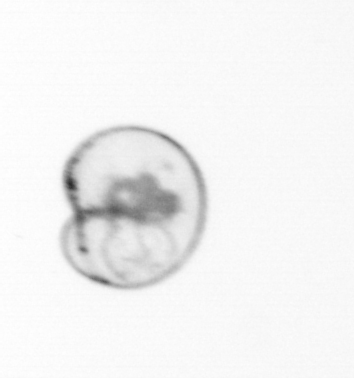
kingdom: Chromista
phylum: Myzozoa
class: Dinophyceae
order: Noctilucales
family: Noctilucaceae
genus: Noctiluca
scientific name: Noctiluca scintillans
